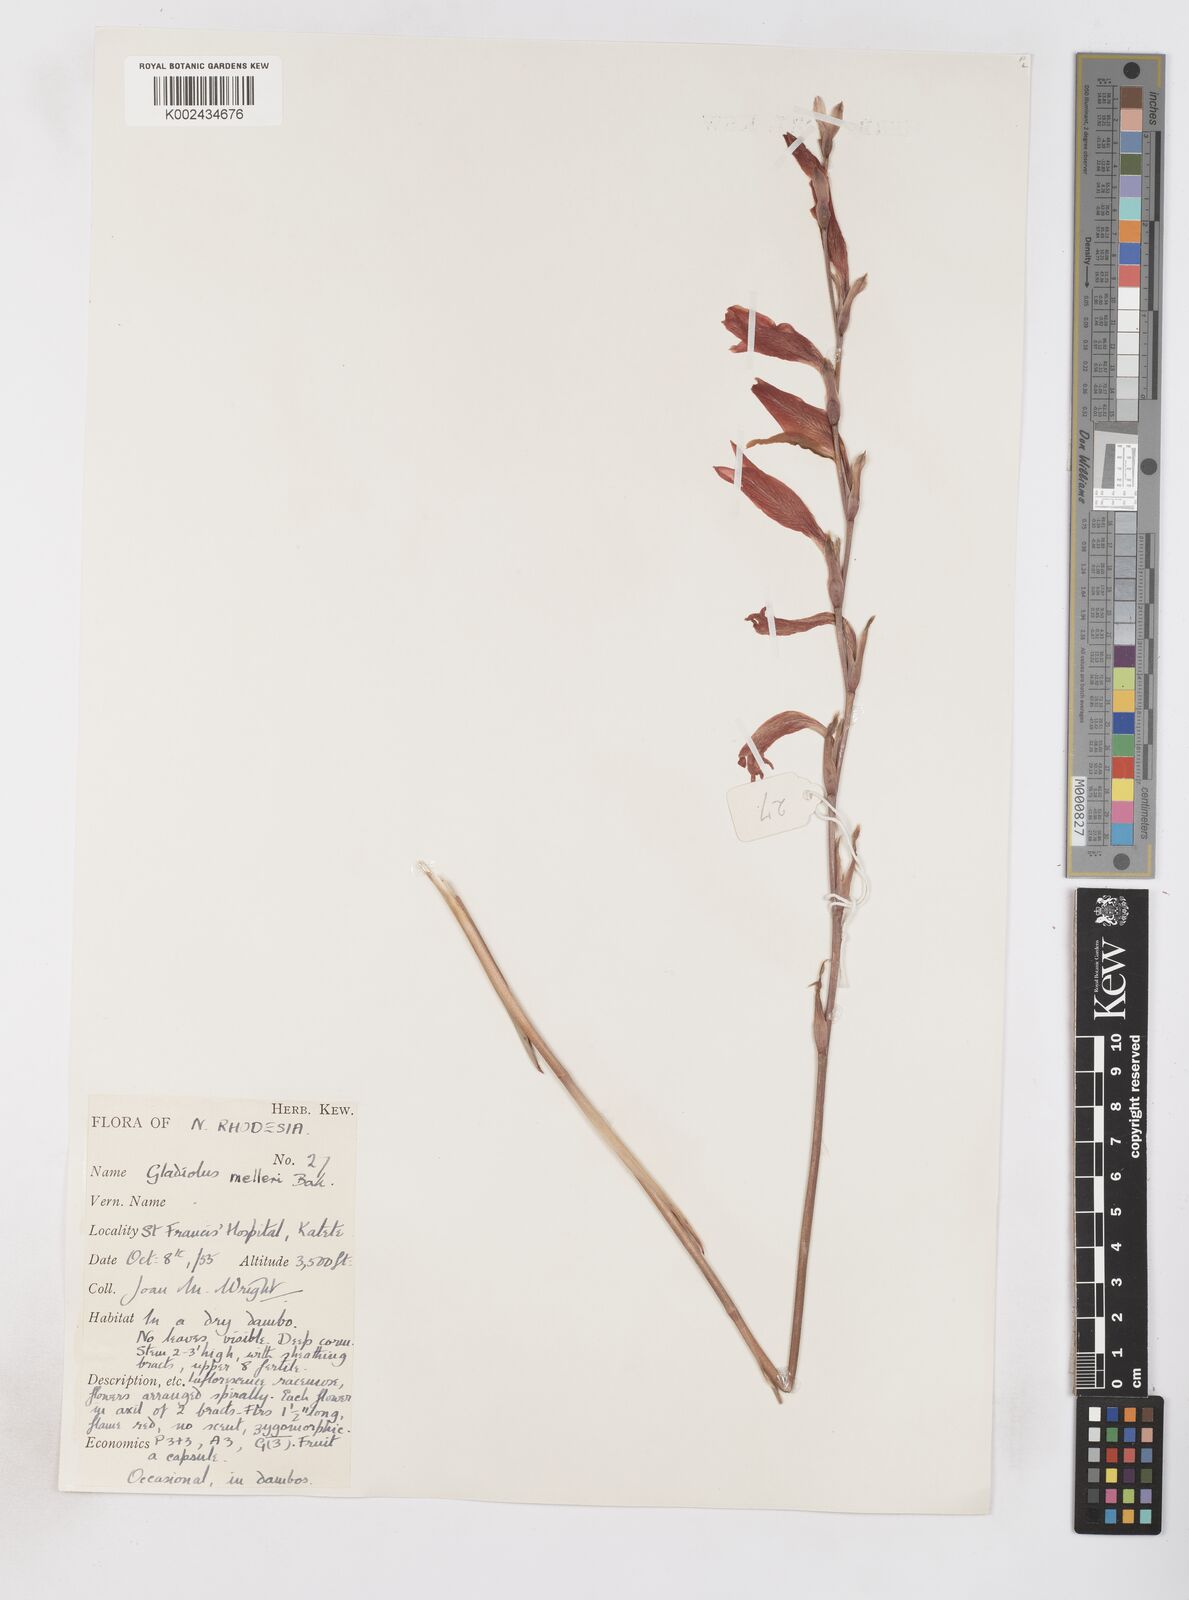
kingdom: Plantae
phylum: Tracheophyta
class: Liliopsida
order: Asparagales
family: Iridaceae
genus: Gladiolus
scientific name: Gladiolus melleri
